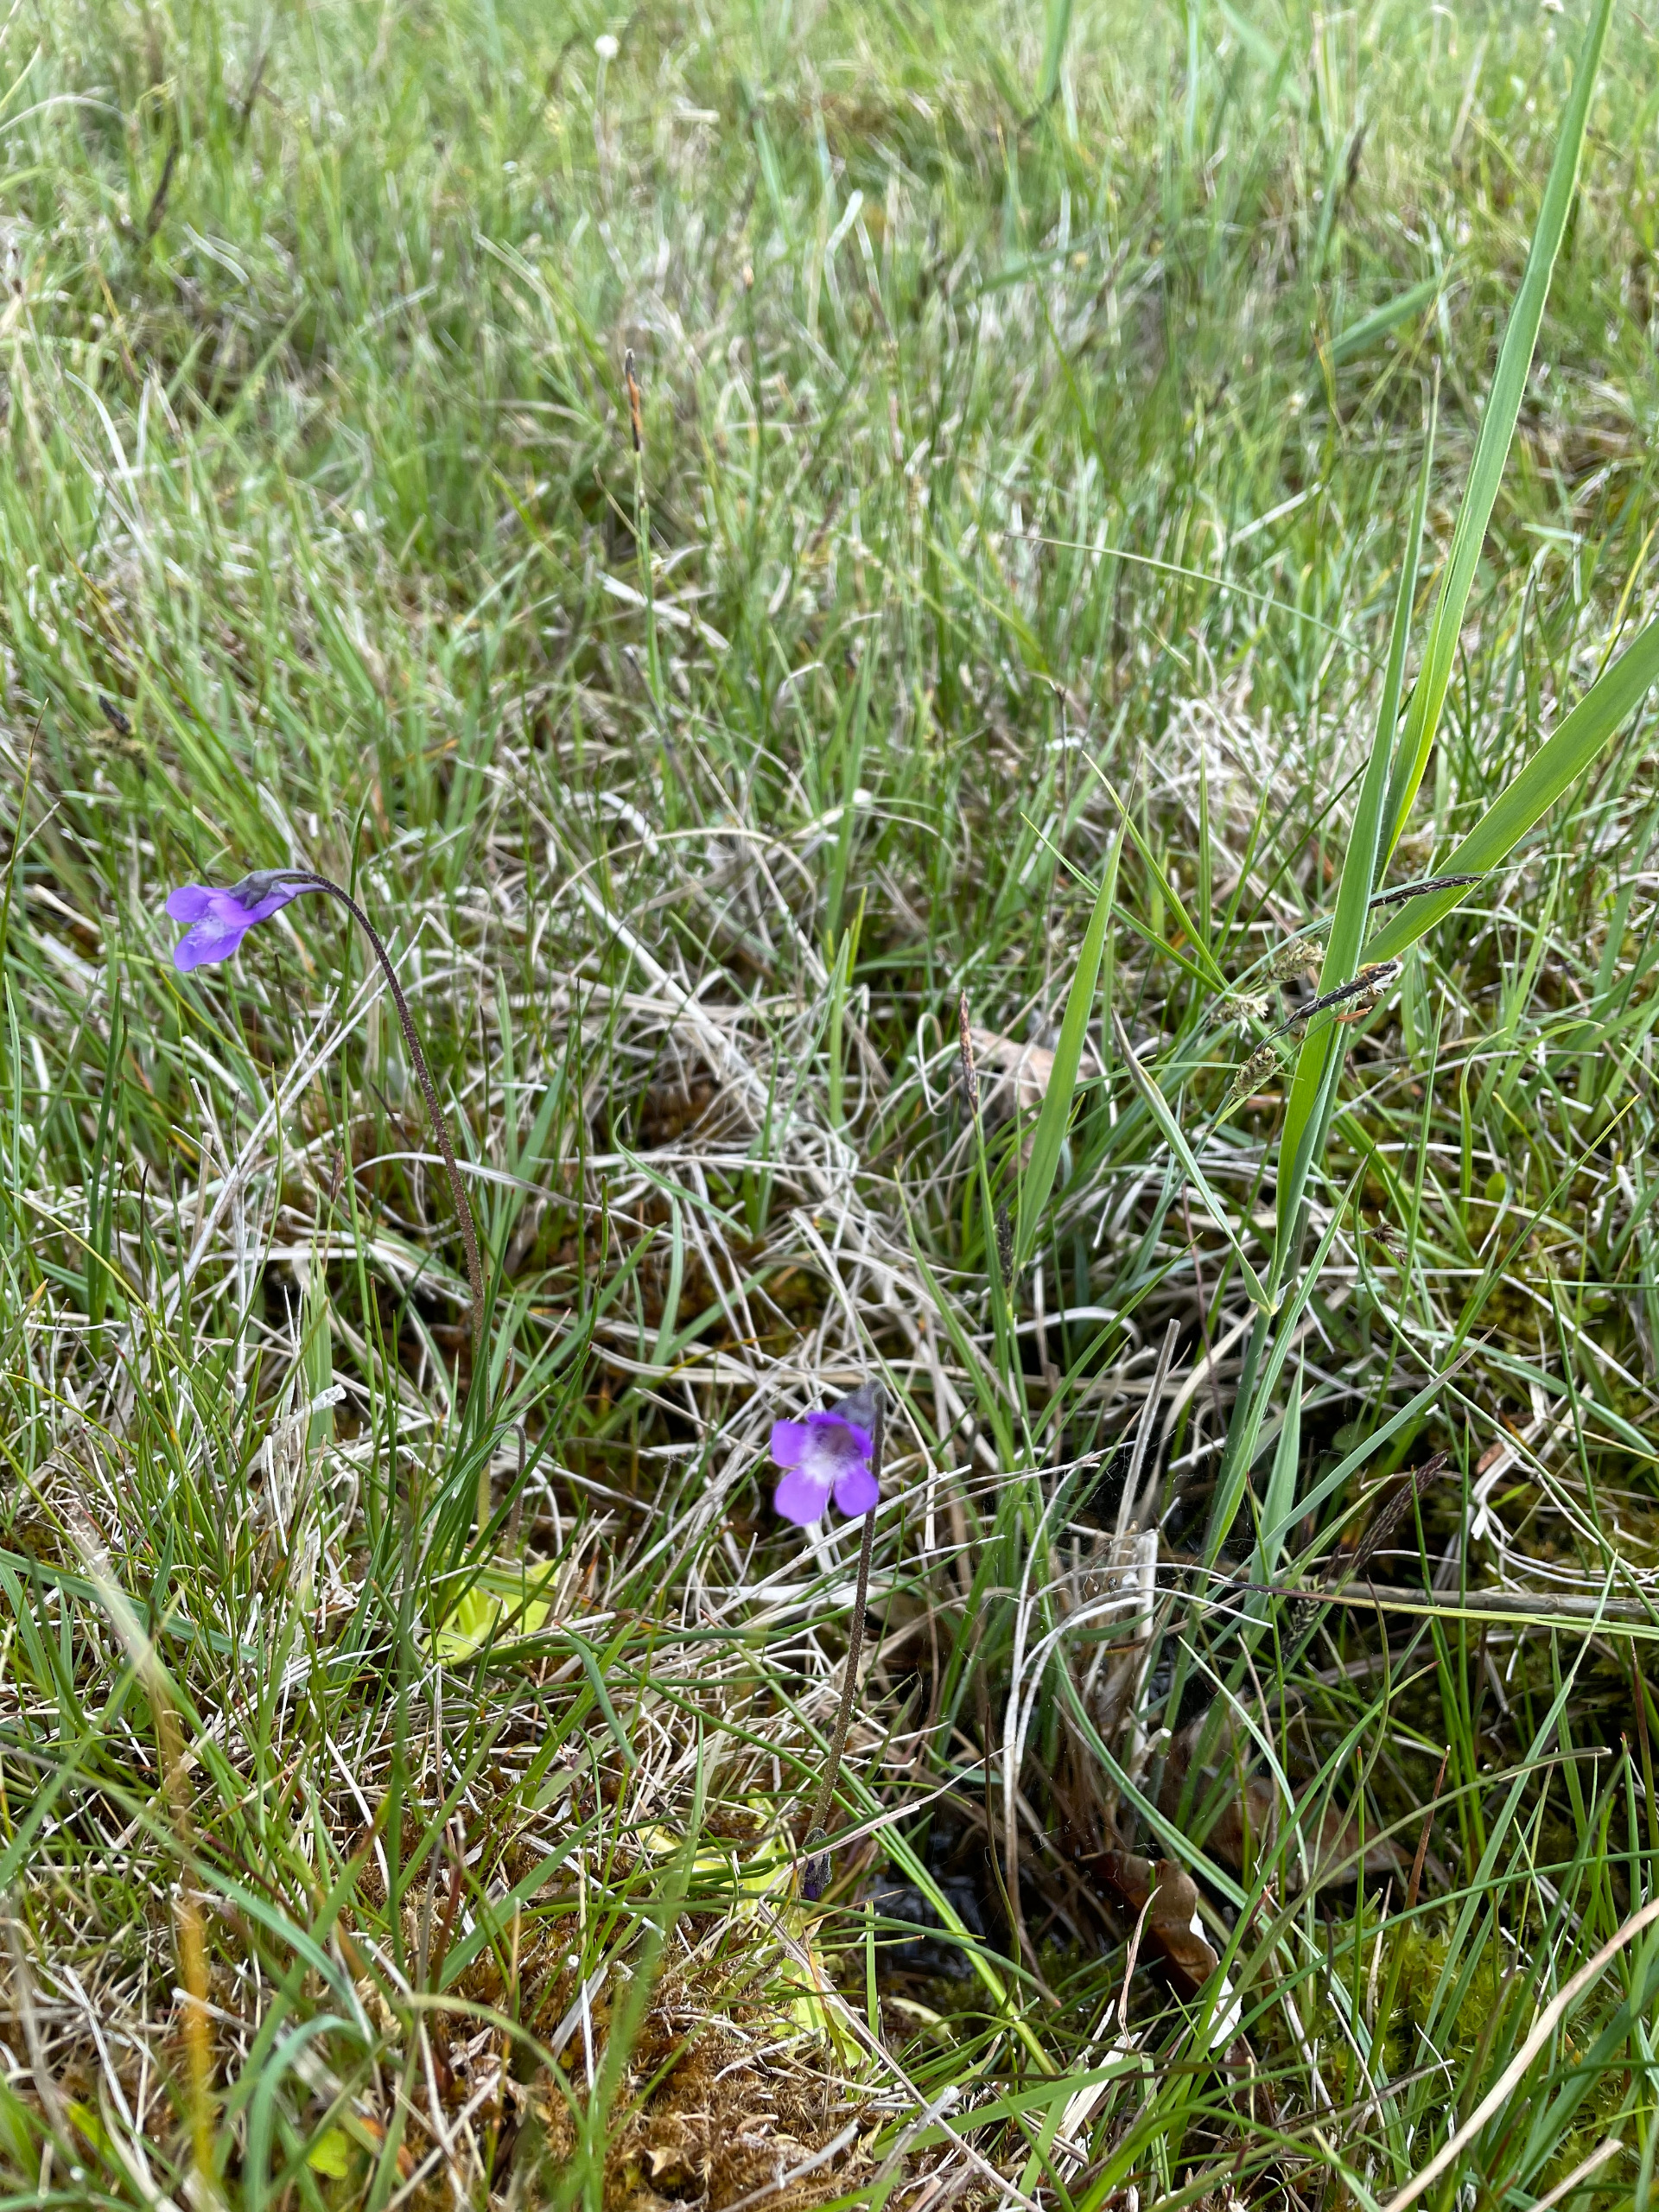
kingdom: Plantae
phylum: Tracheophyta
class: Magnoliopsida
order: Lamiales
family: Lentibulariaceae
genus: Pinguicula
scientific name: Pinguicula vulgaris
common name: Vibefedt
